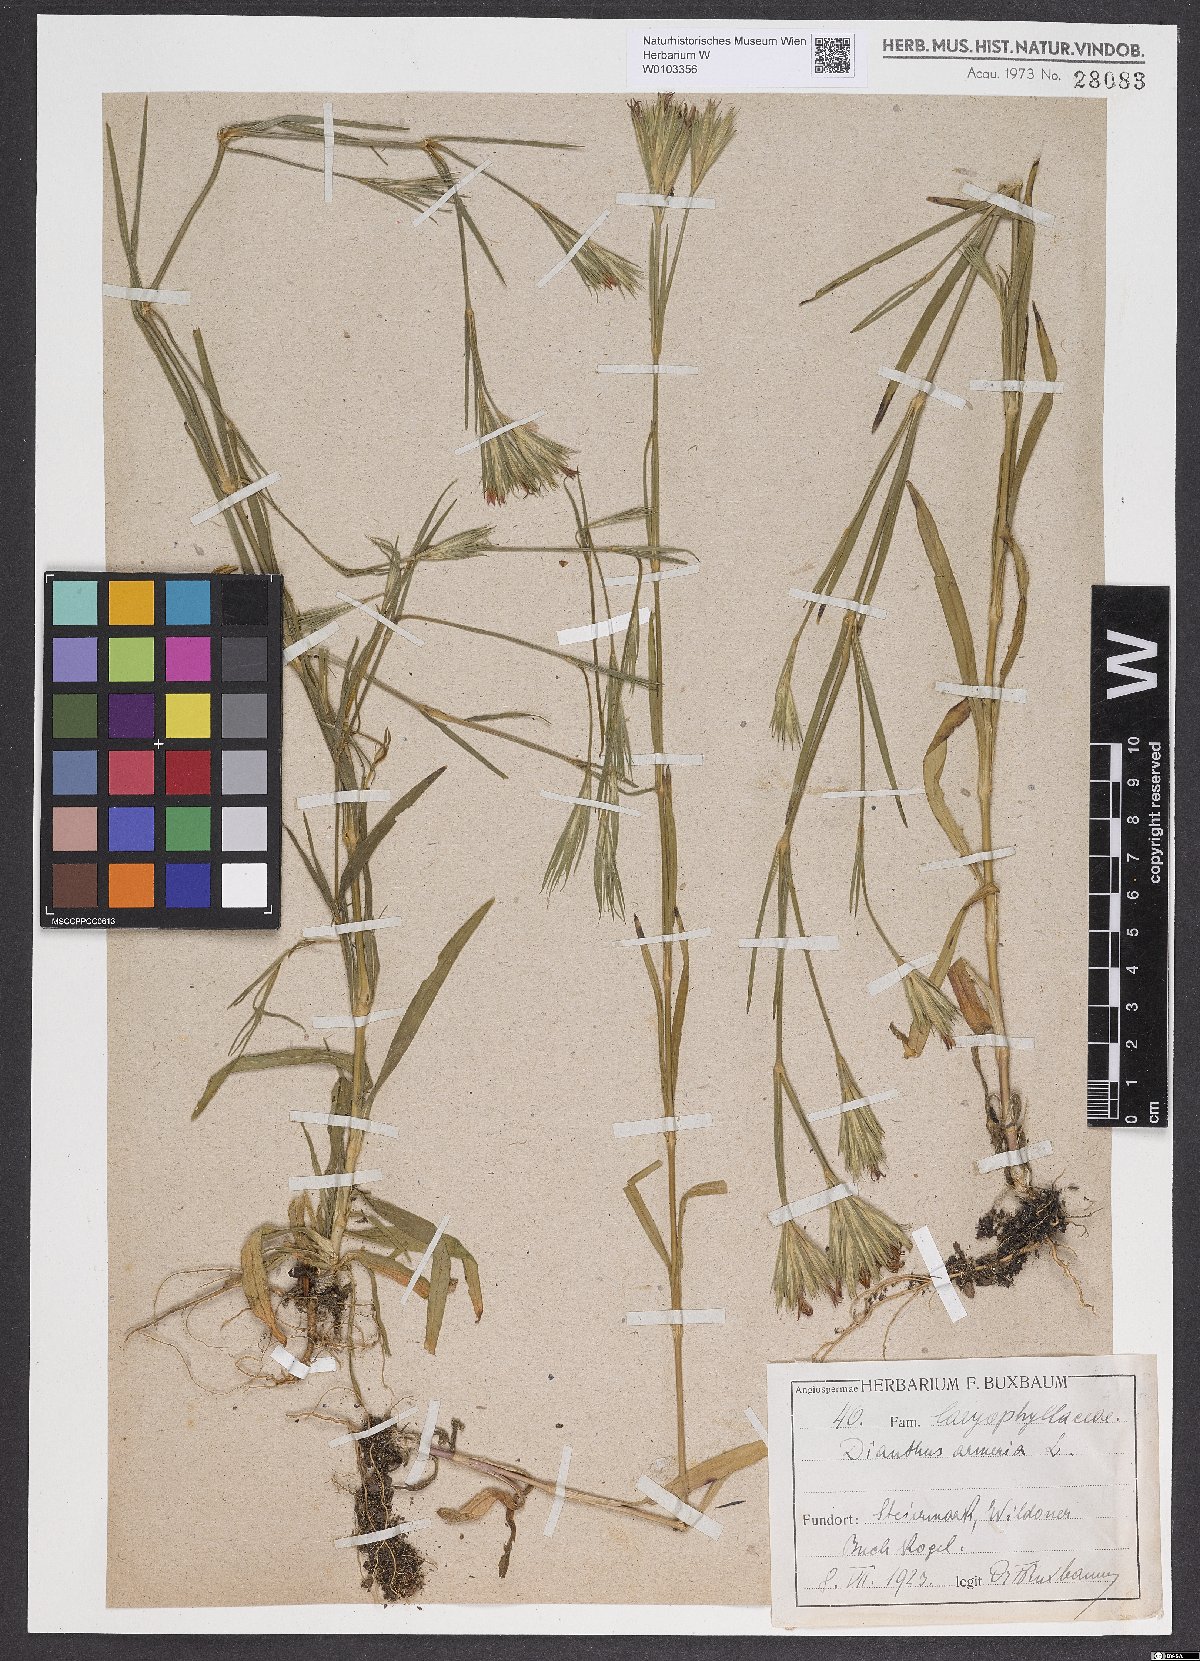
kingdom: Plantae
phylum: Tracheophyta
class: Magnoliopsida
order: Caryophyllales
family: Caryophyllaceae
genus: Dianthus
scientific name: Dianthus armeria
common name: Deptford pink
